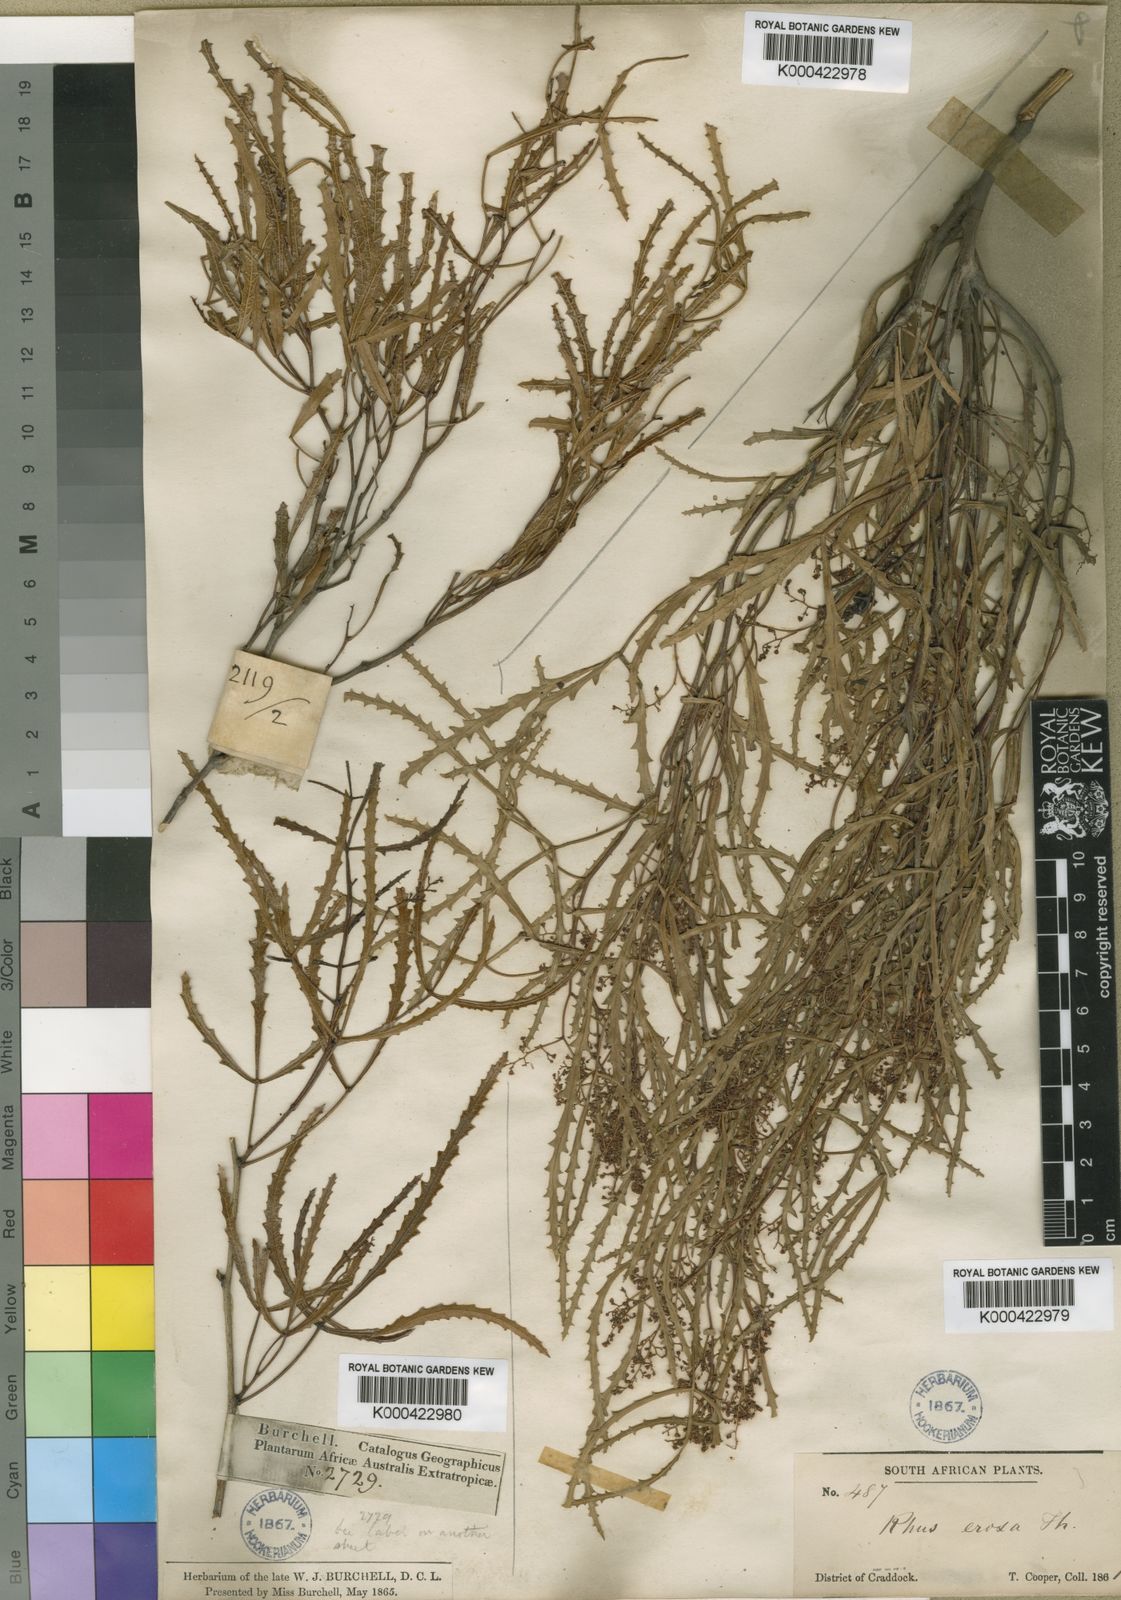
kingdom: Plantae
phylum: Tracheophyta
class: Magnoliopsida
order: Sapindales
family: Anacardiaceae
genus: Searsia
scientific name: Searsia erosa
